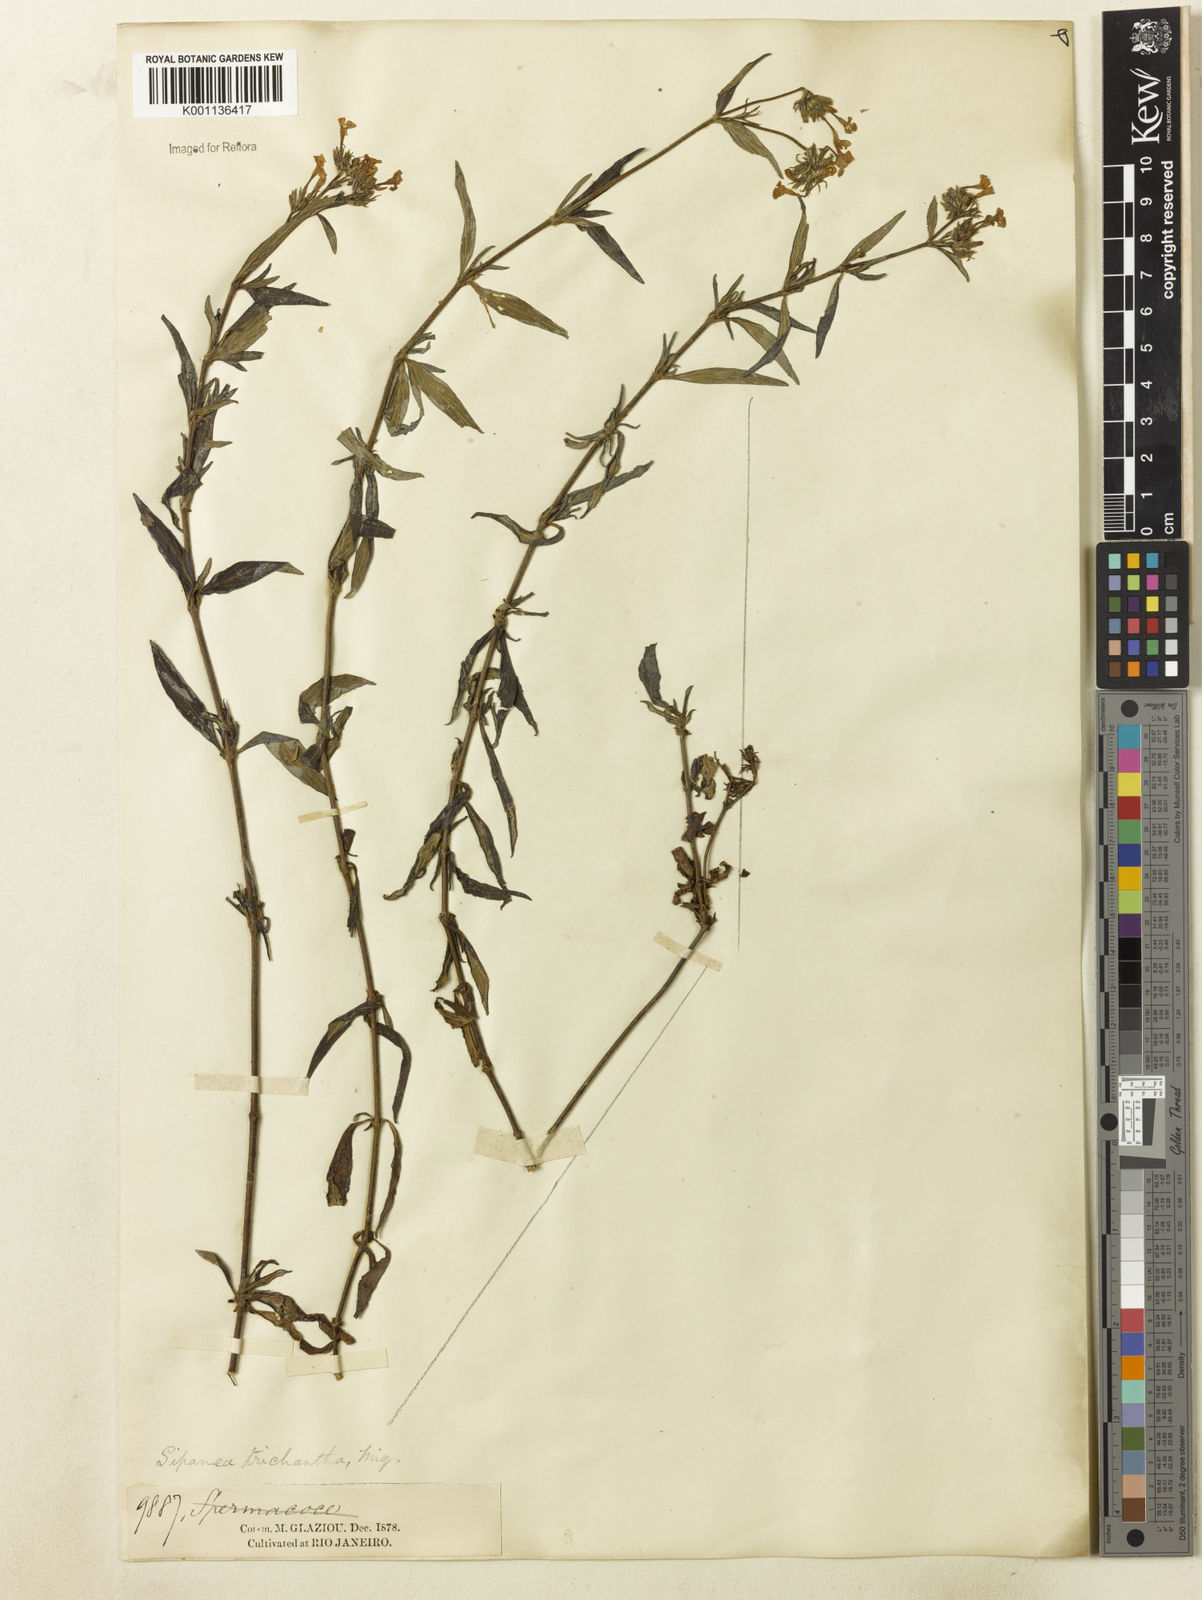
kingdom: Plantae
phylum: Tracheophyta
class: Magnoliopsida
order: Gentianales
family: Rubiaceae
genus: Sipanea
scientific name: Sipanea galioides
